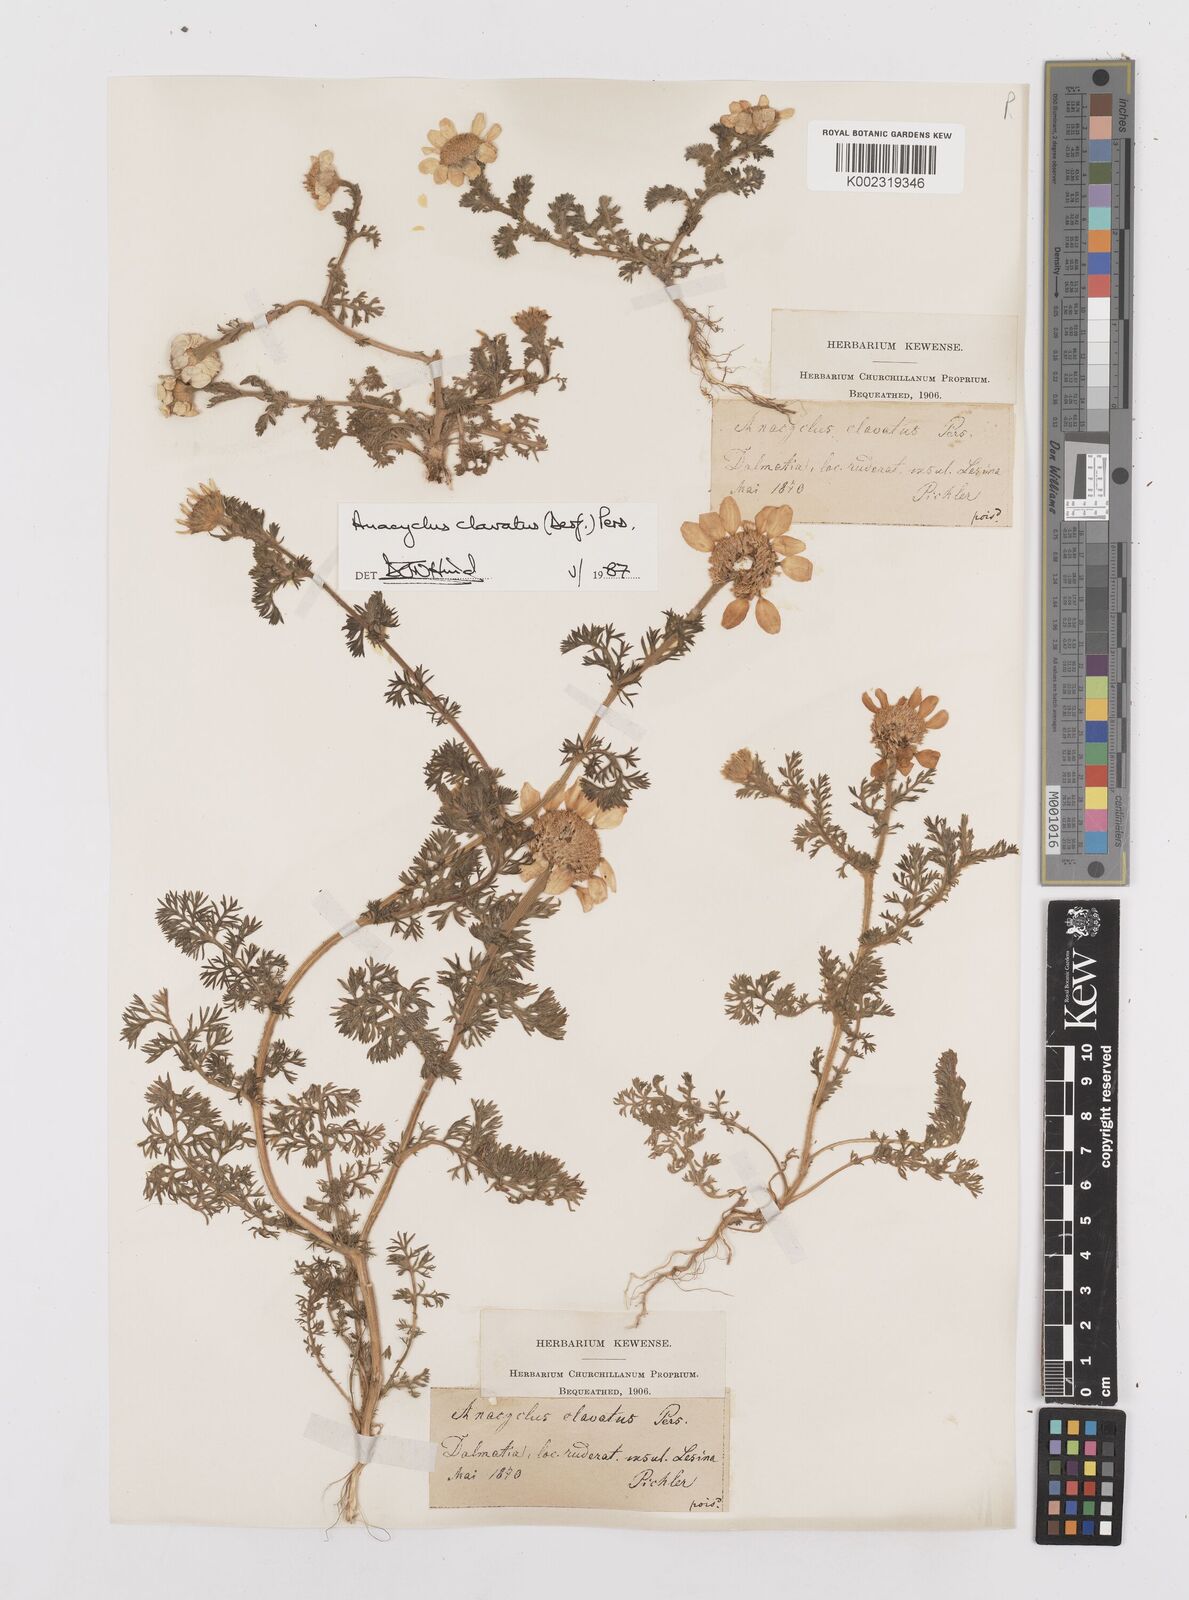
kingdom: Plantae
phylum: Tracheophyta
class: Magnoliopsida
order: Asterales
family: Asteraceae
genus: Anacyclus
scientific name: Anacyclus clavatus
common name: Whitebuttons
